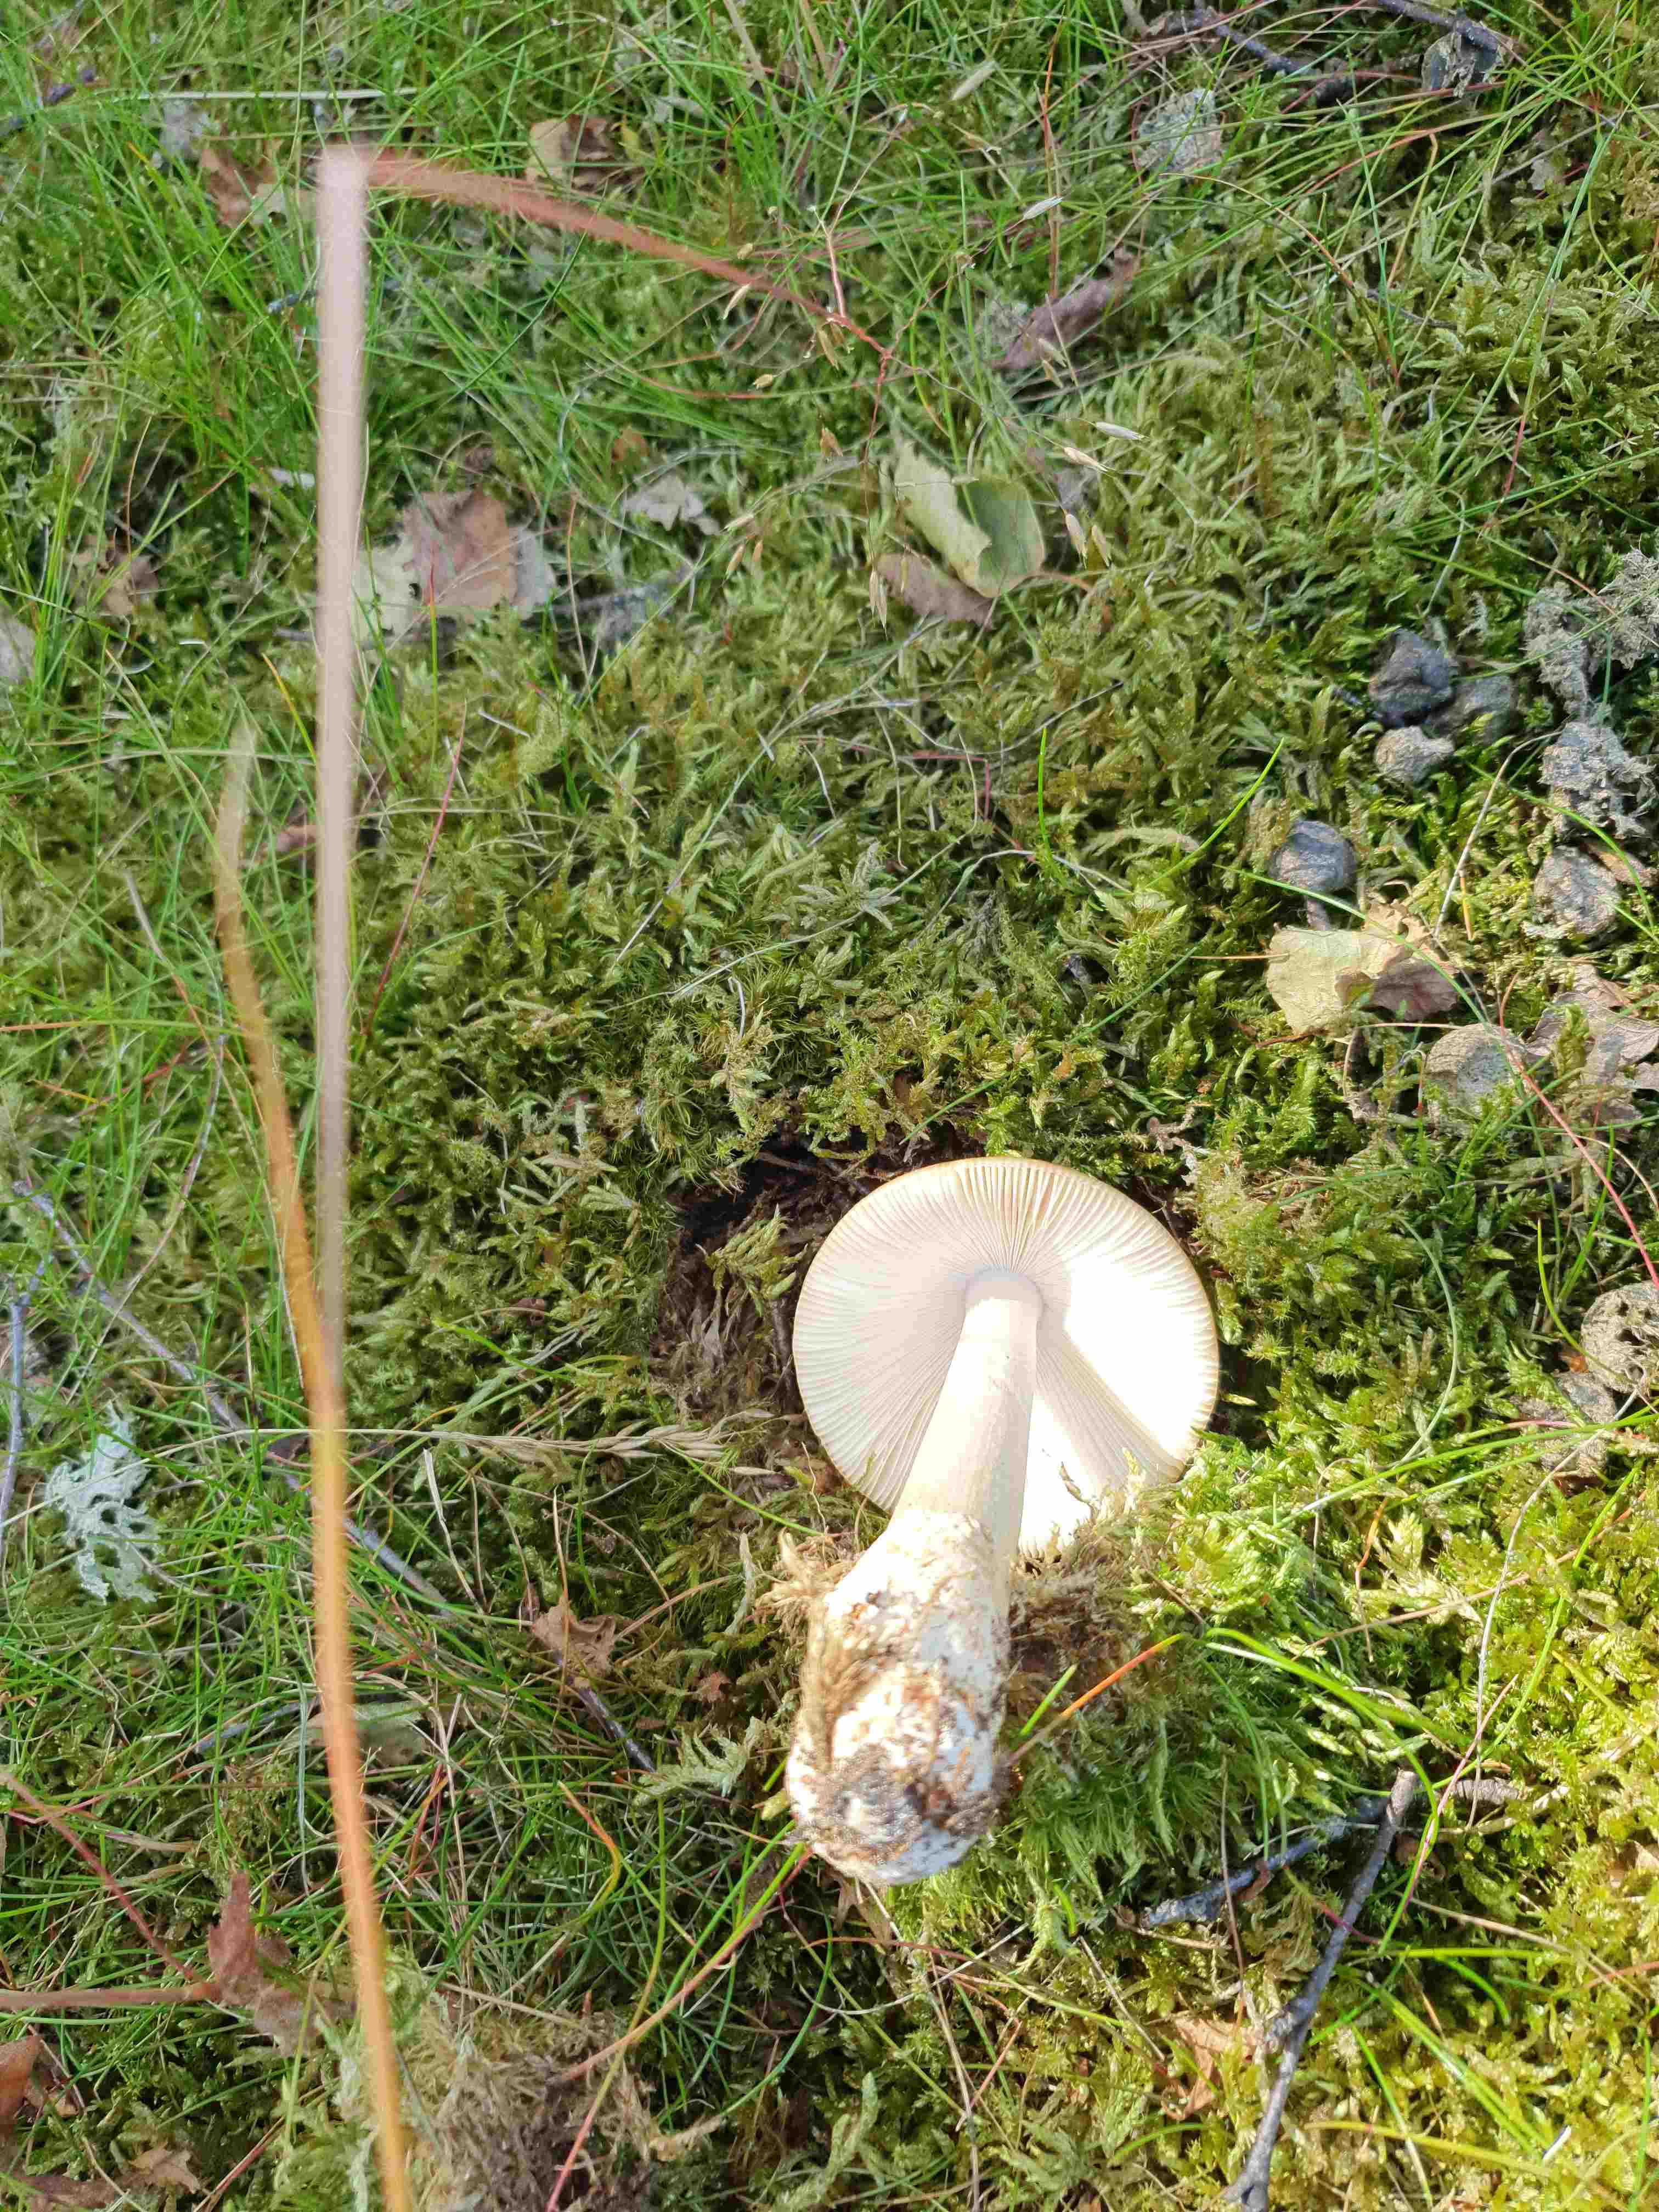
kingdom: Fungi
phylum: Basidiomycota
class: Agaricomycetes
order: Agaricales
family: Amanitaceae
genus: Amanita
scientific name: Amanita fulva
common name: brun kam-fluesvamp
